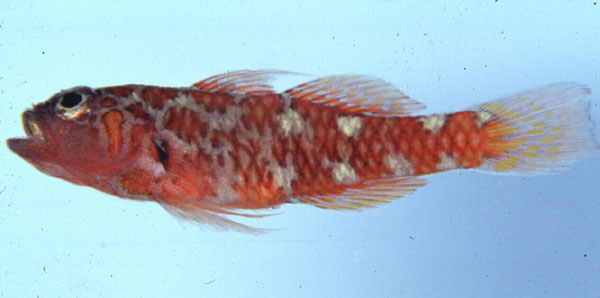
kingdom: Animalia
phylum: Chordata
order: Perciformes
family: Gobiidae
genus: Trimma
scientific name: Trimma naudei
